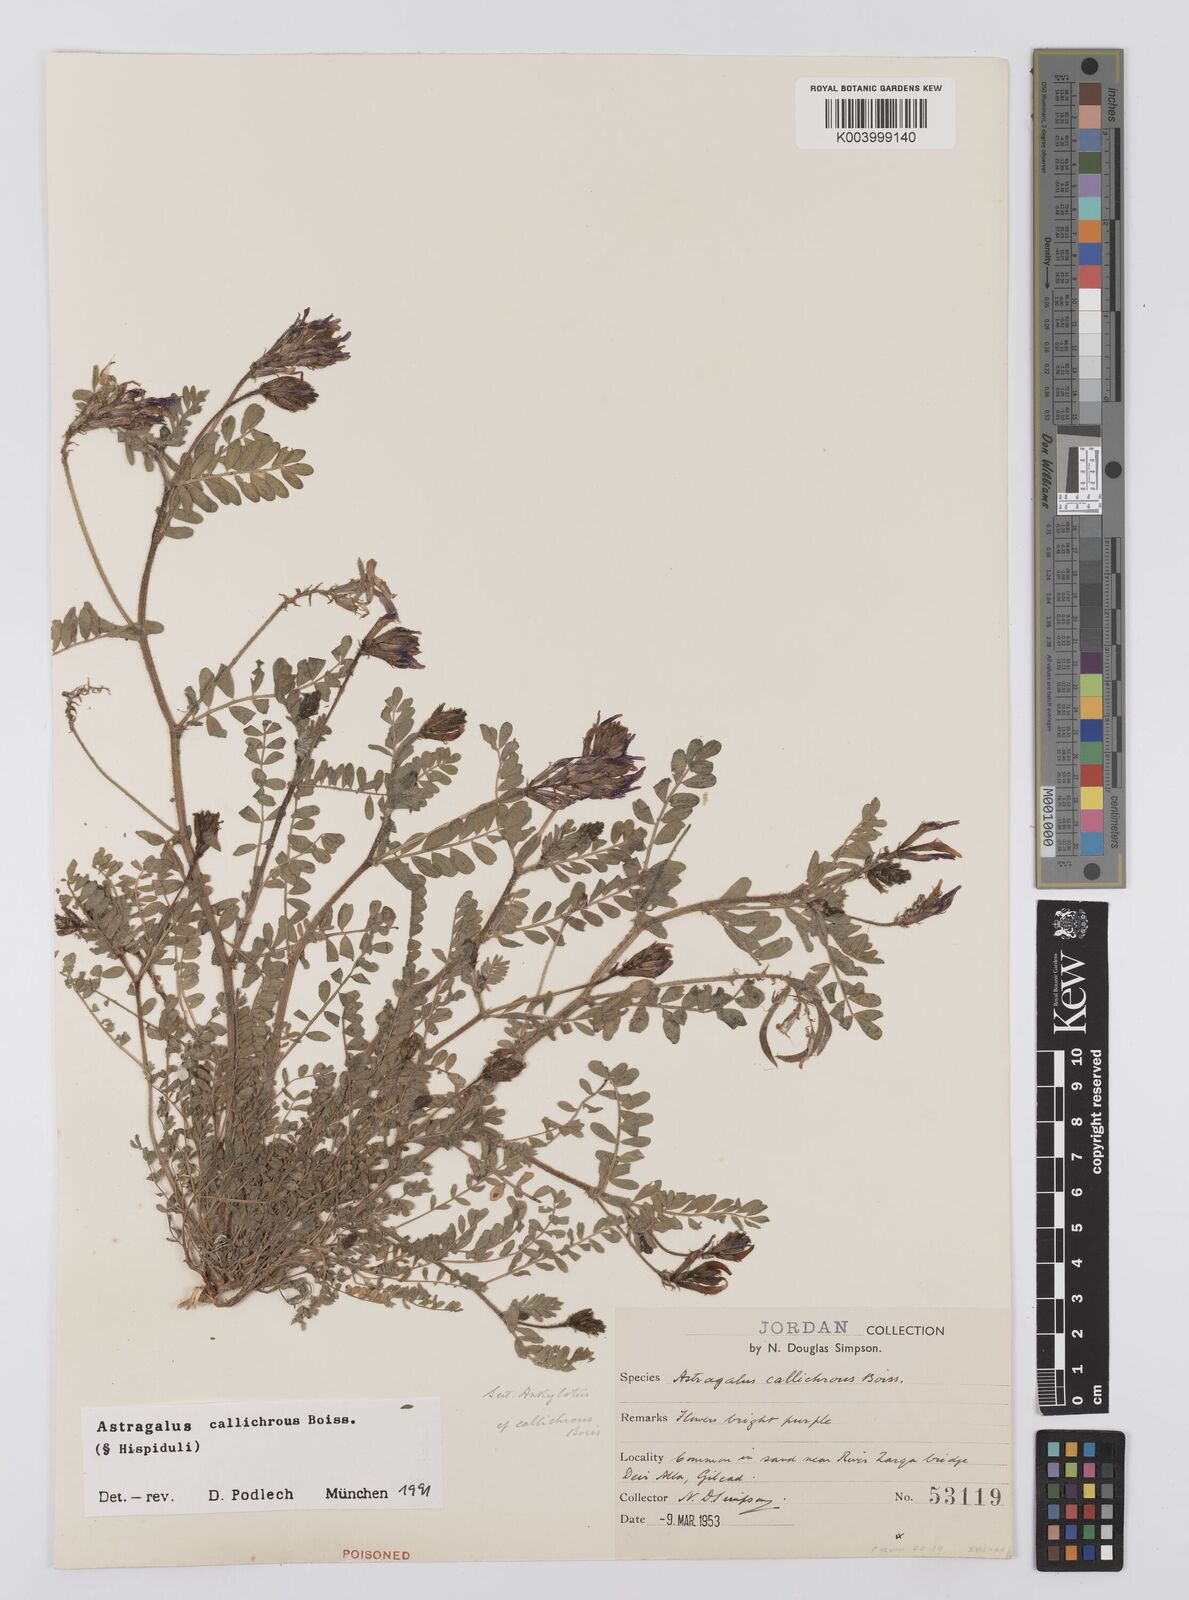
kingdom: Plantae
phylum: Tracheophyta
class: Magnoliopsida
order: Fabales
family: Fabaceae
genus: Astragalus
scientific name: Astragalus callichrous
